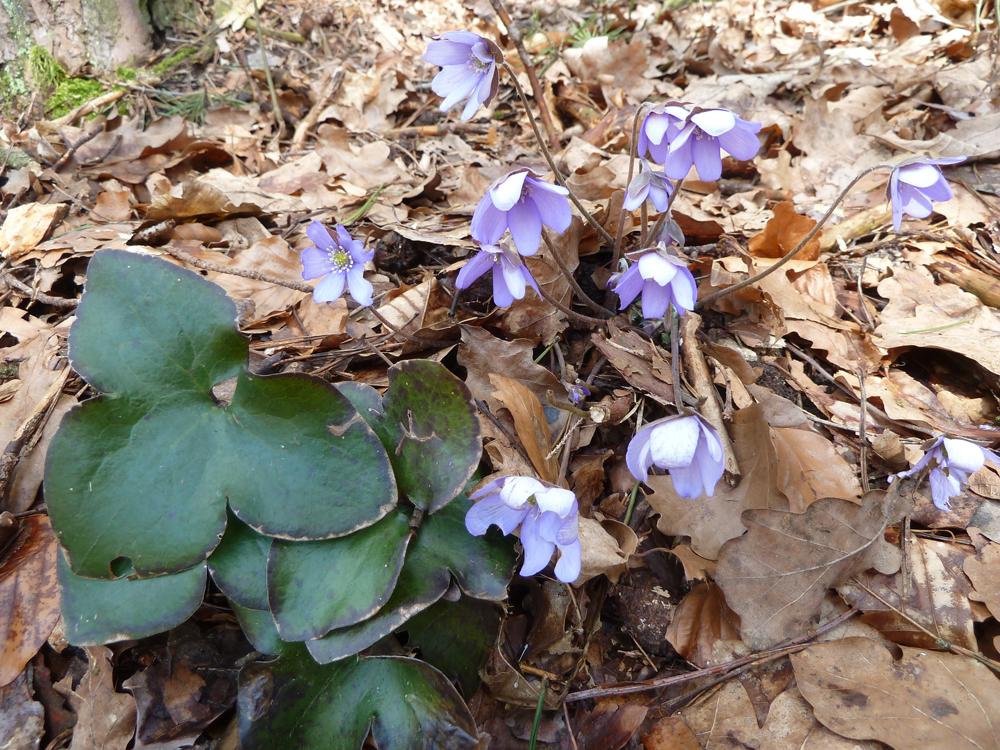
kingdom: Plantae
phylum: Tracheophyta
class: Magnoliopsida
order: Ranunculales
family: Ranunculaceae
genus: Hepatica
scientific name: Hepatica nobilis
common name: Liverleaf
